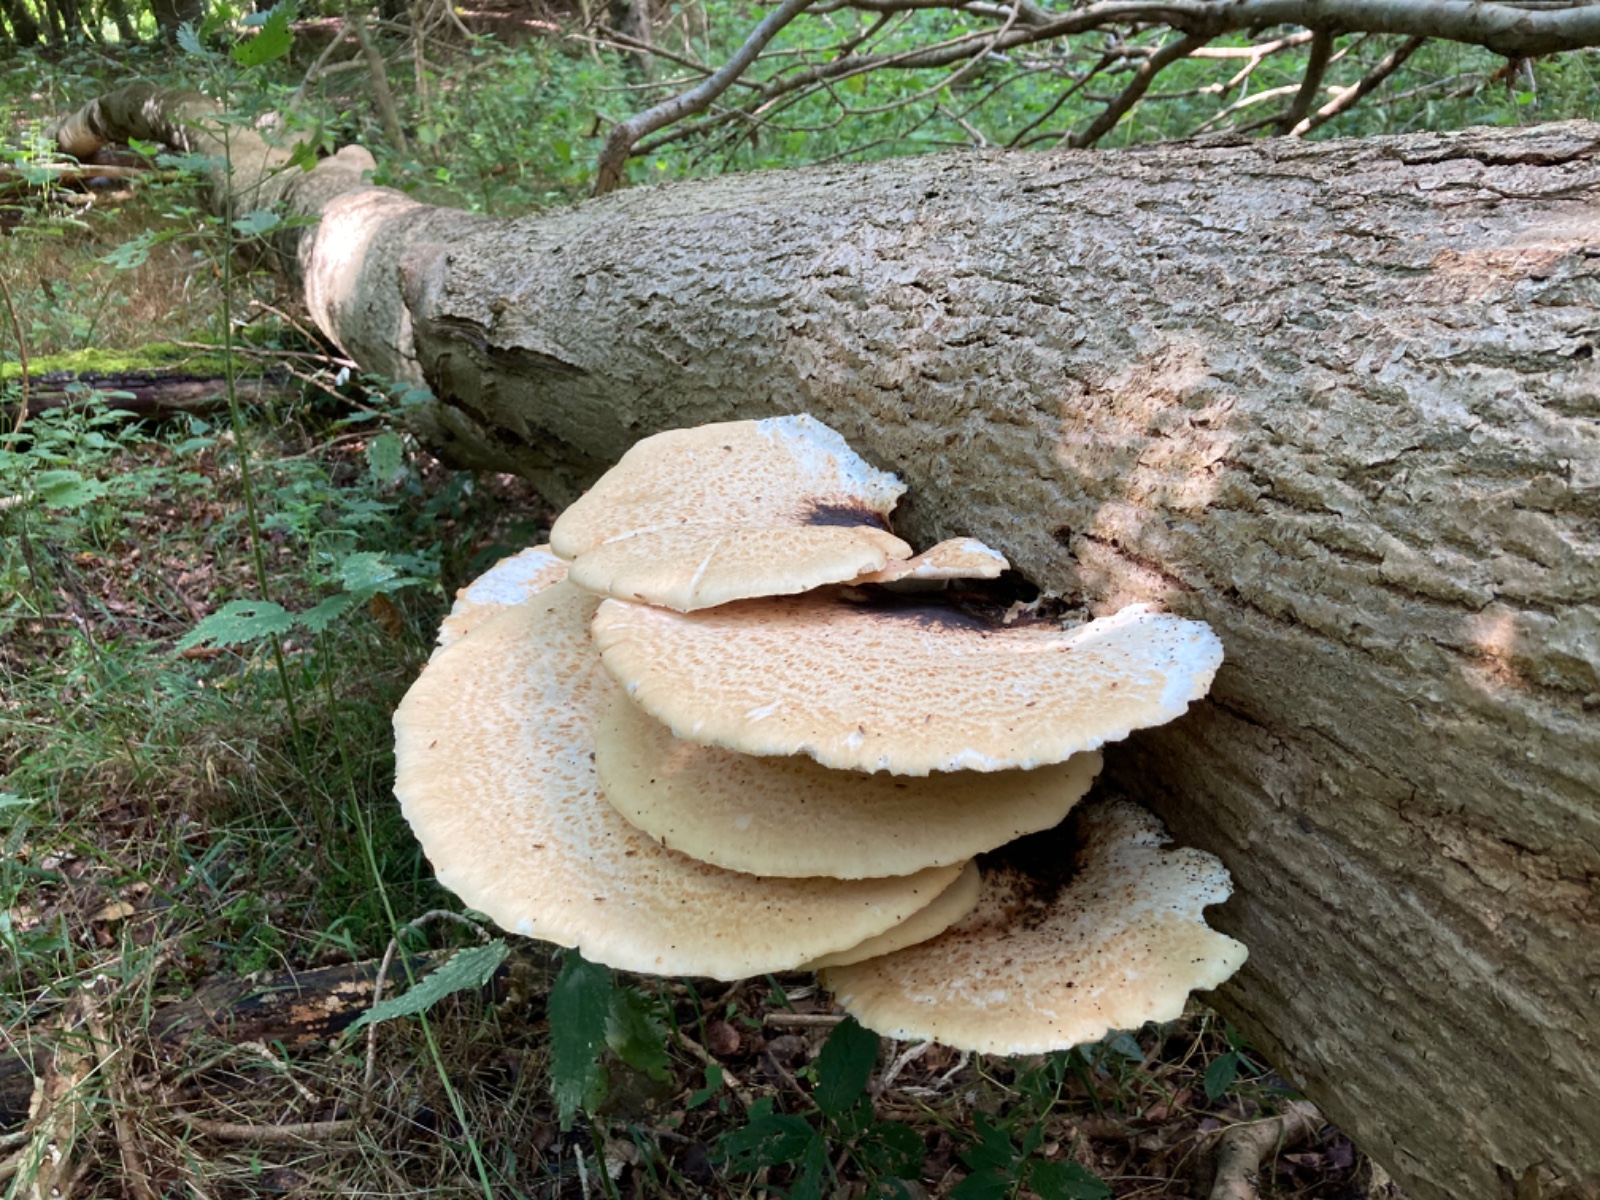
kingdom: Fungi
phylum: Basidiomycota
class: Agaricomycetes
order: Polyporales
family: Polyporaceae
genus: Cerioporus
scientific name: Cerioporus squamosus
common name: skællet stilkporesvamp
